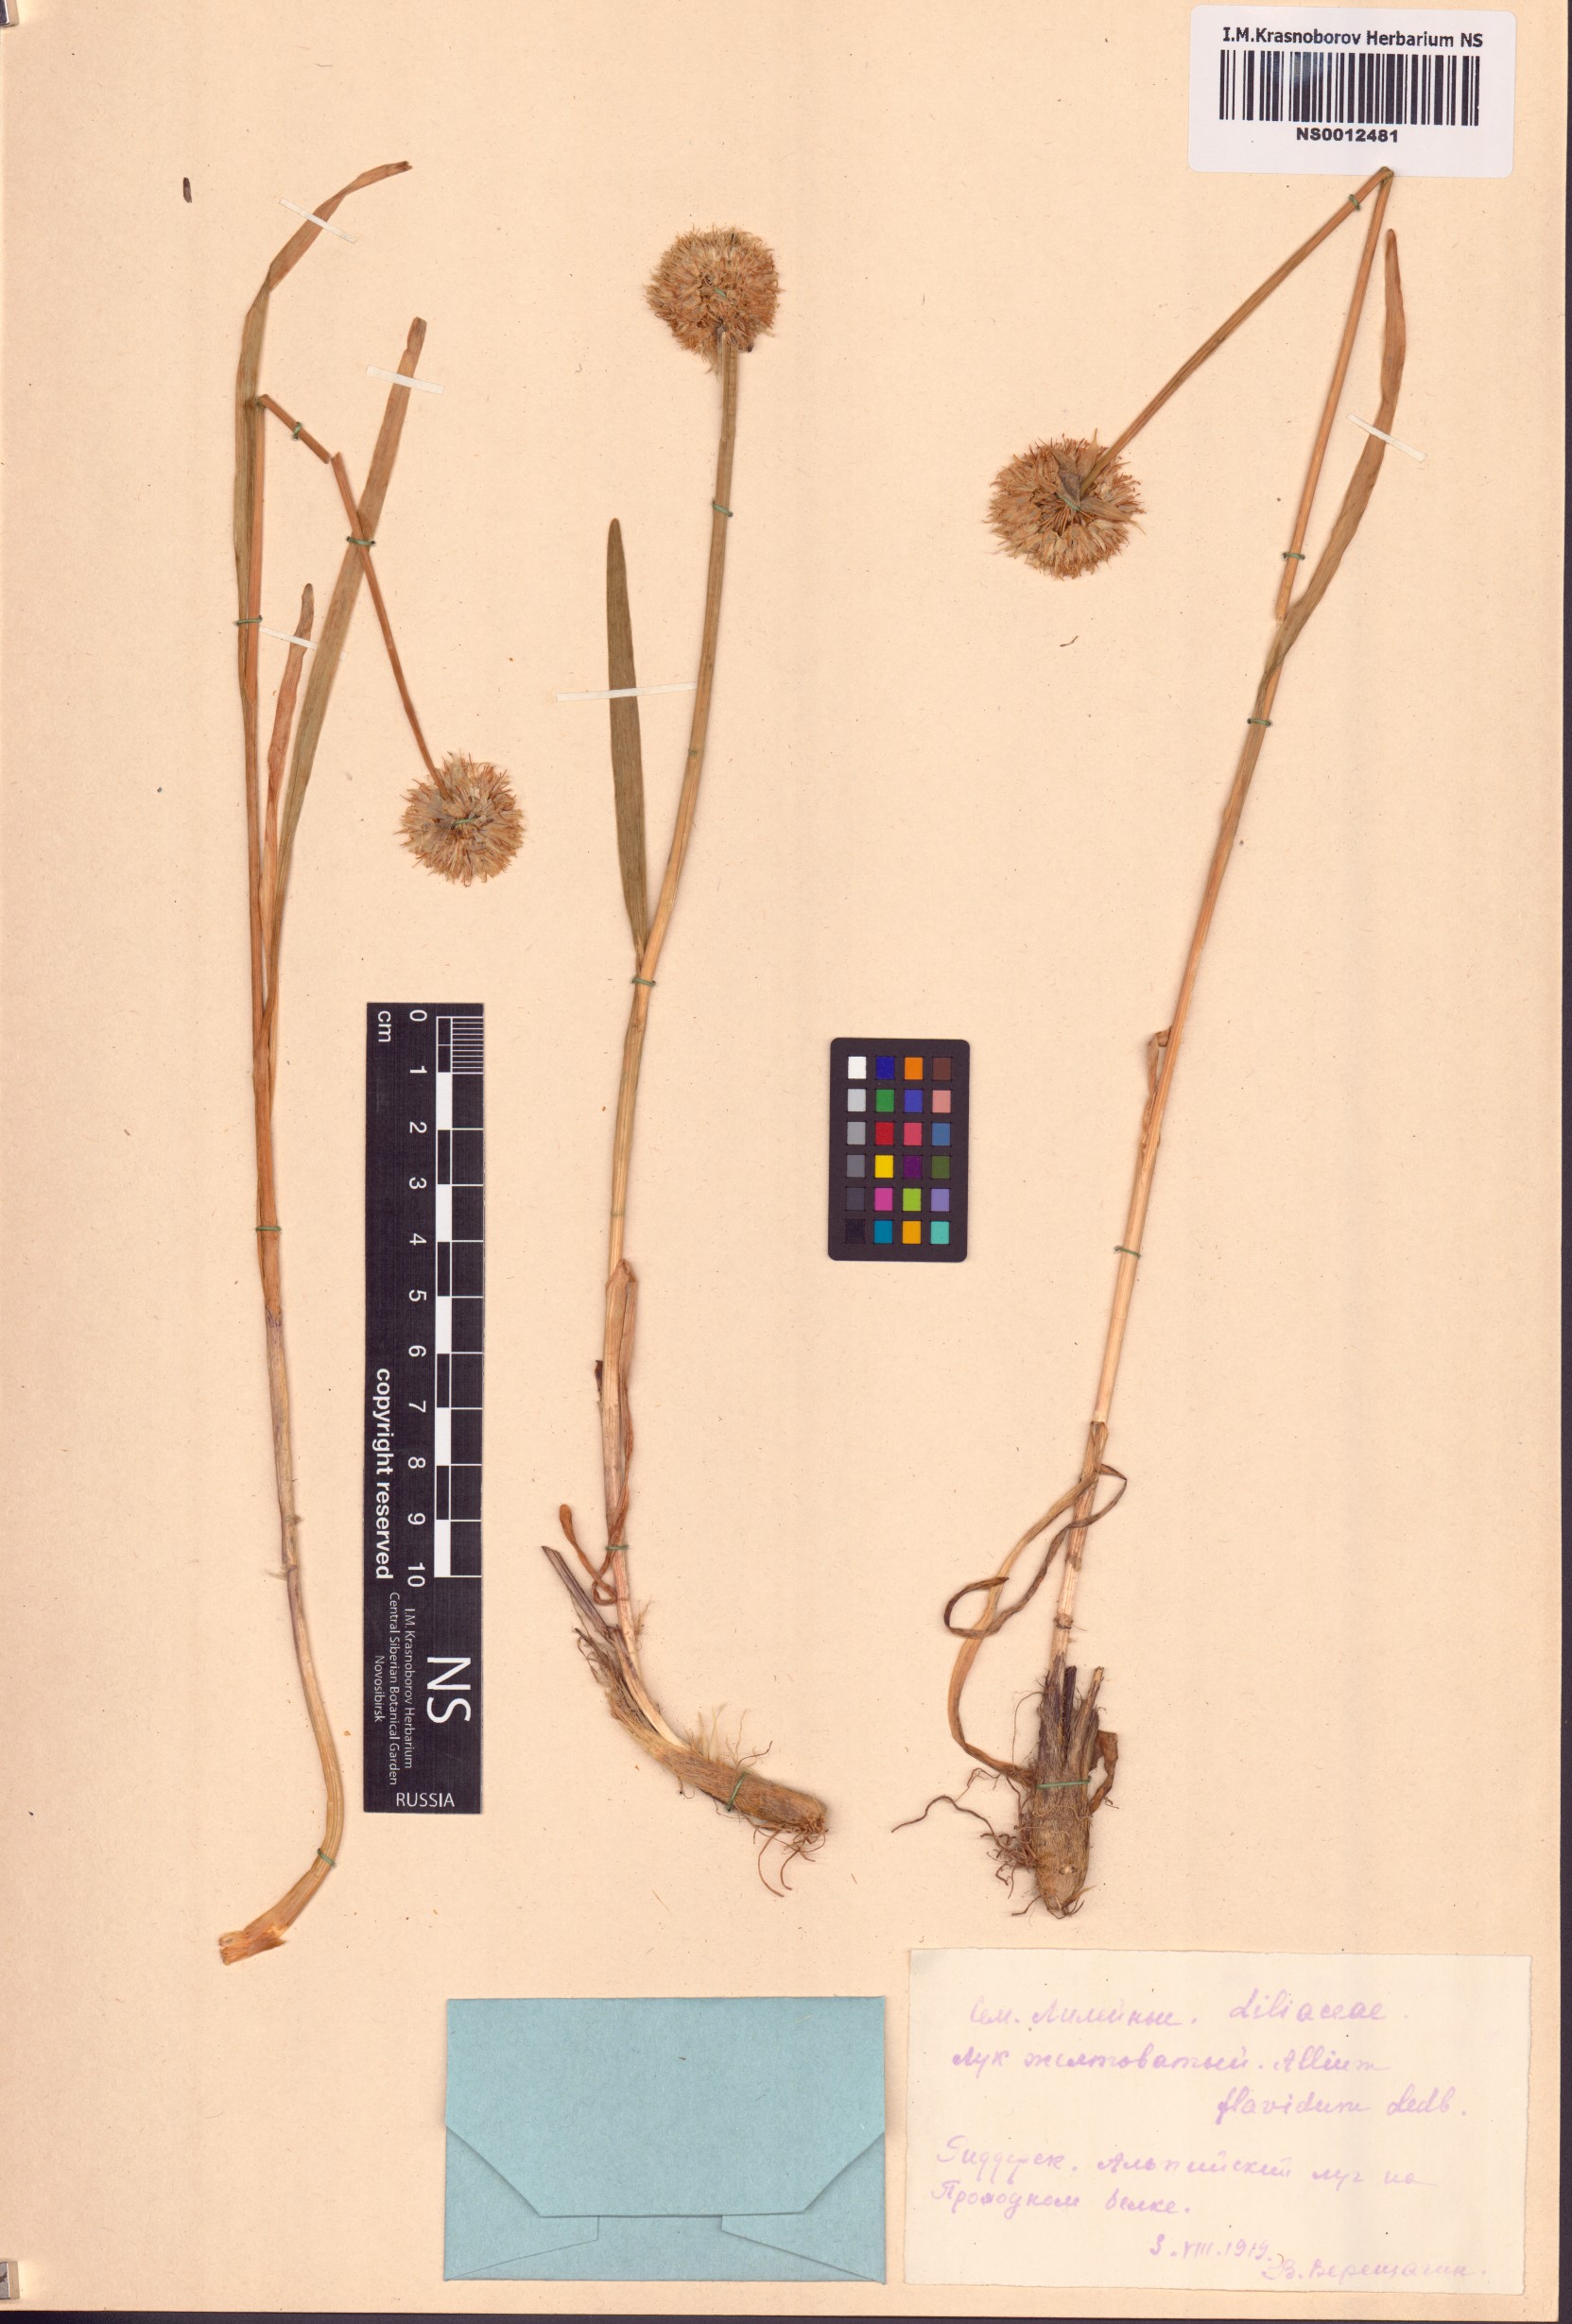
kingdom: Plantae
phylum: Tracheophyta
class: Liliopsida
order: Asparagales
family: Amaryllidaceae
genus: Allium
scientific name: Allium flavidum
